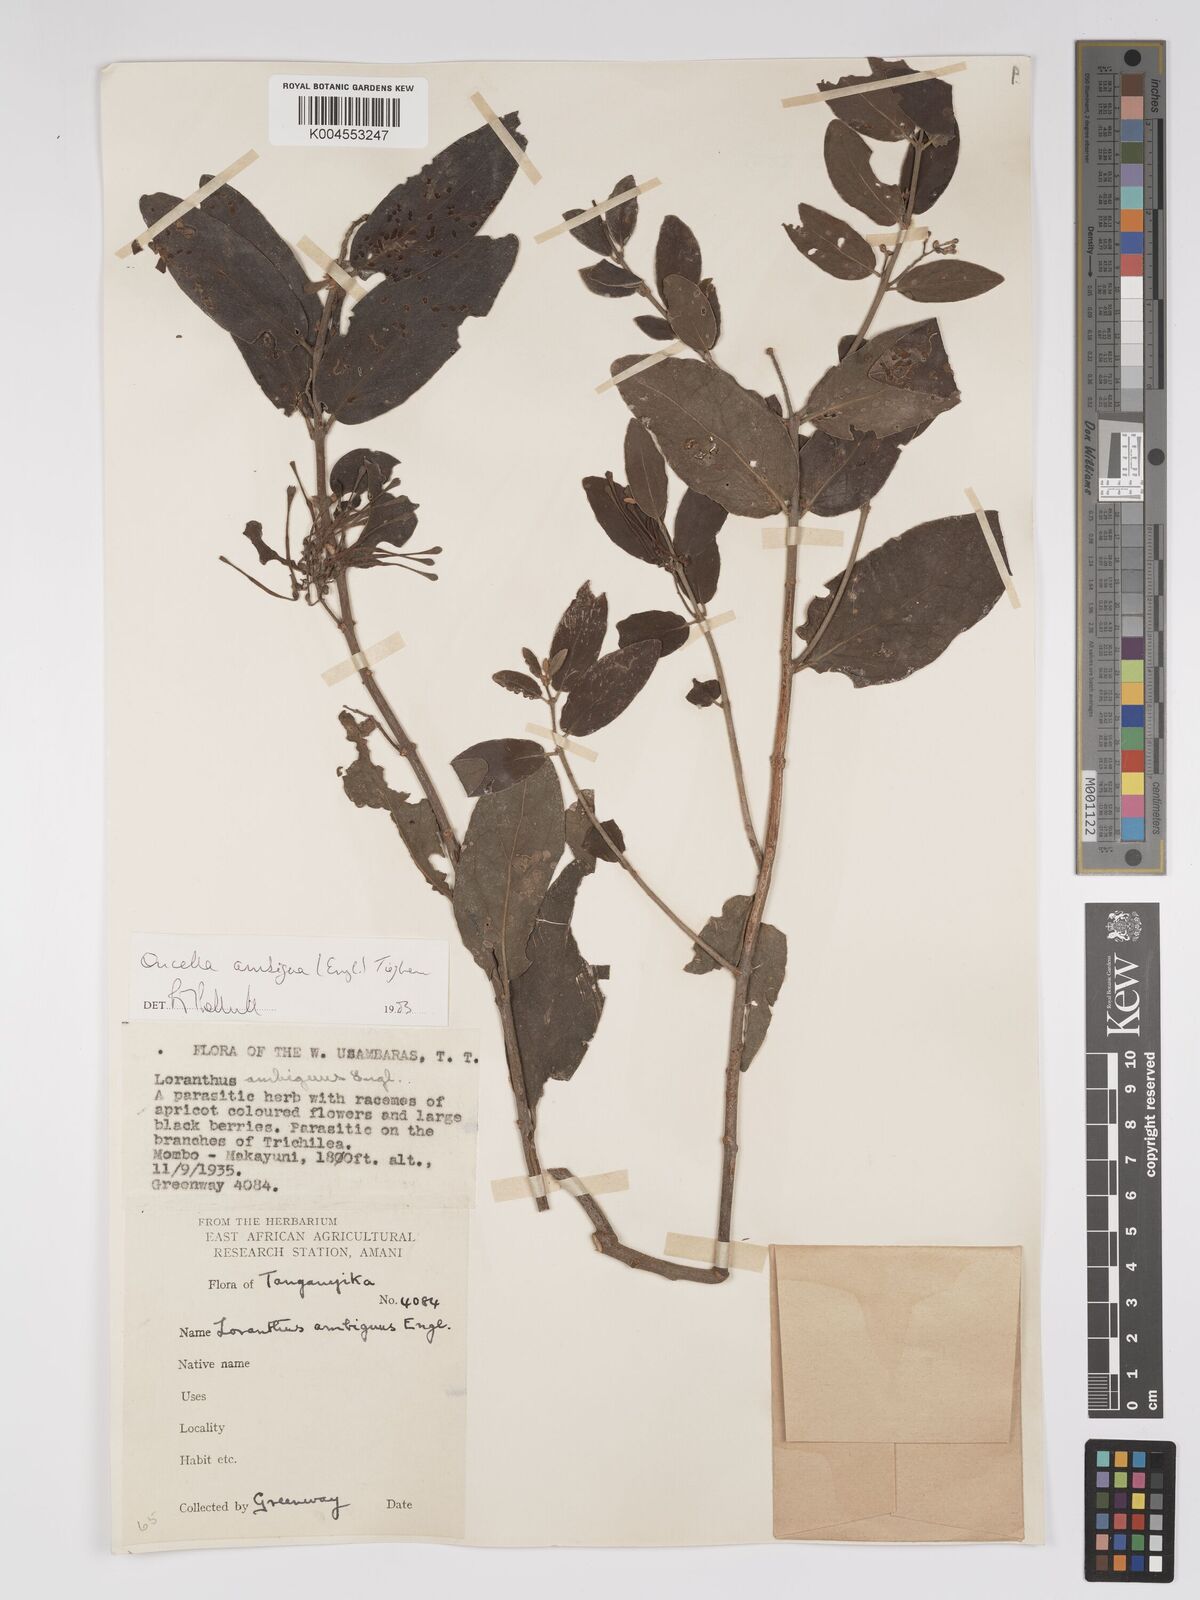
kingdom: Plantae
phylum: Tracheophyta
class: Magnoliopsida
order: Santalales
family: Loranthaceae
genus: Oncella
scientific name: Oncella ambigua
